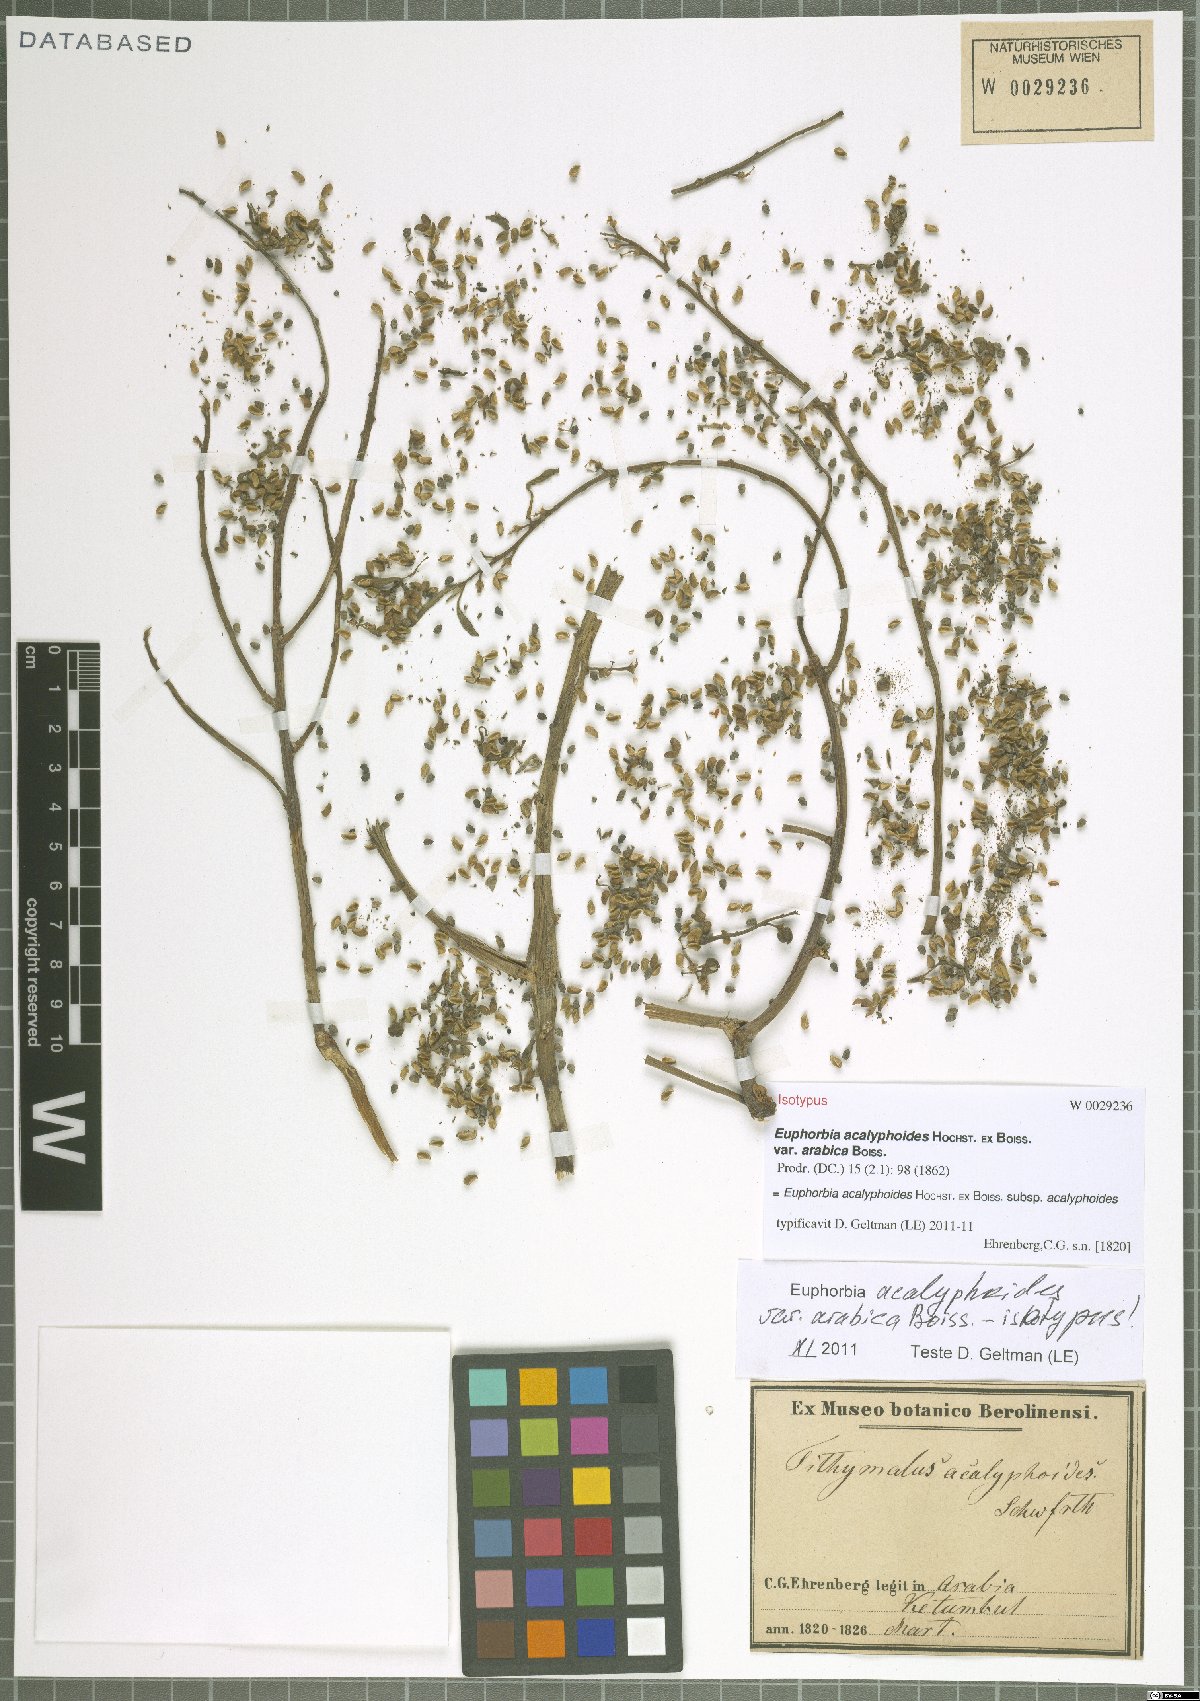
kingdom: Plantae
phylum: Tracheophyta
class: Magnoliopsida
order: Malpighiales
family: Euphorbiaceae
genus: Euphorbia
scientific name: Euphorbia acalyphoides
